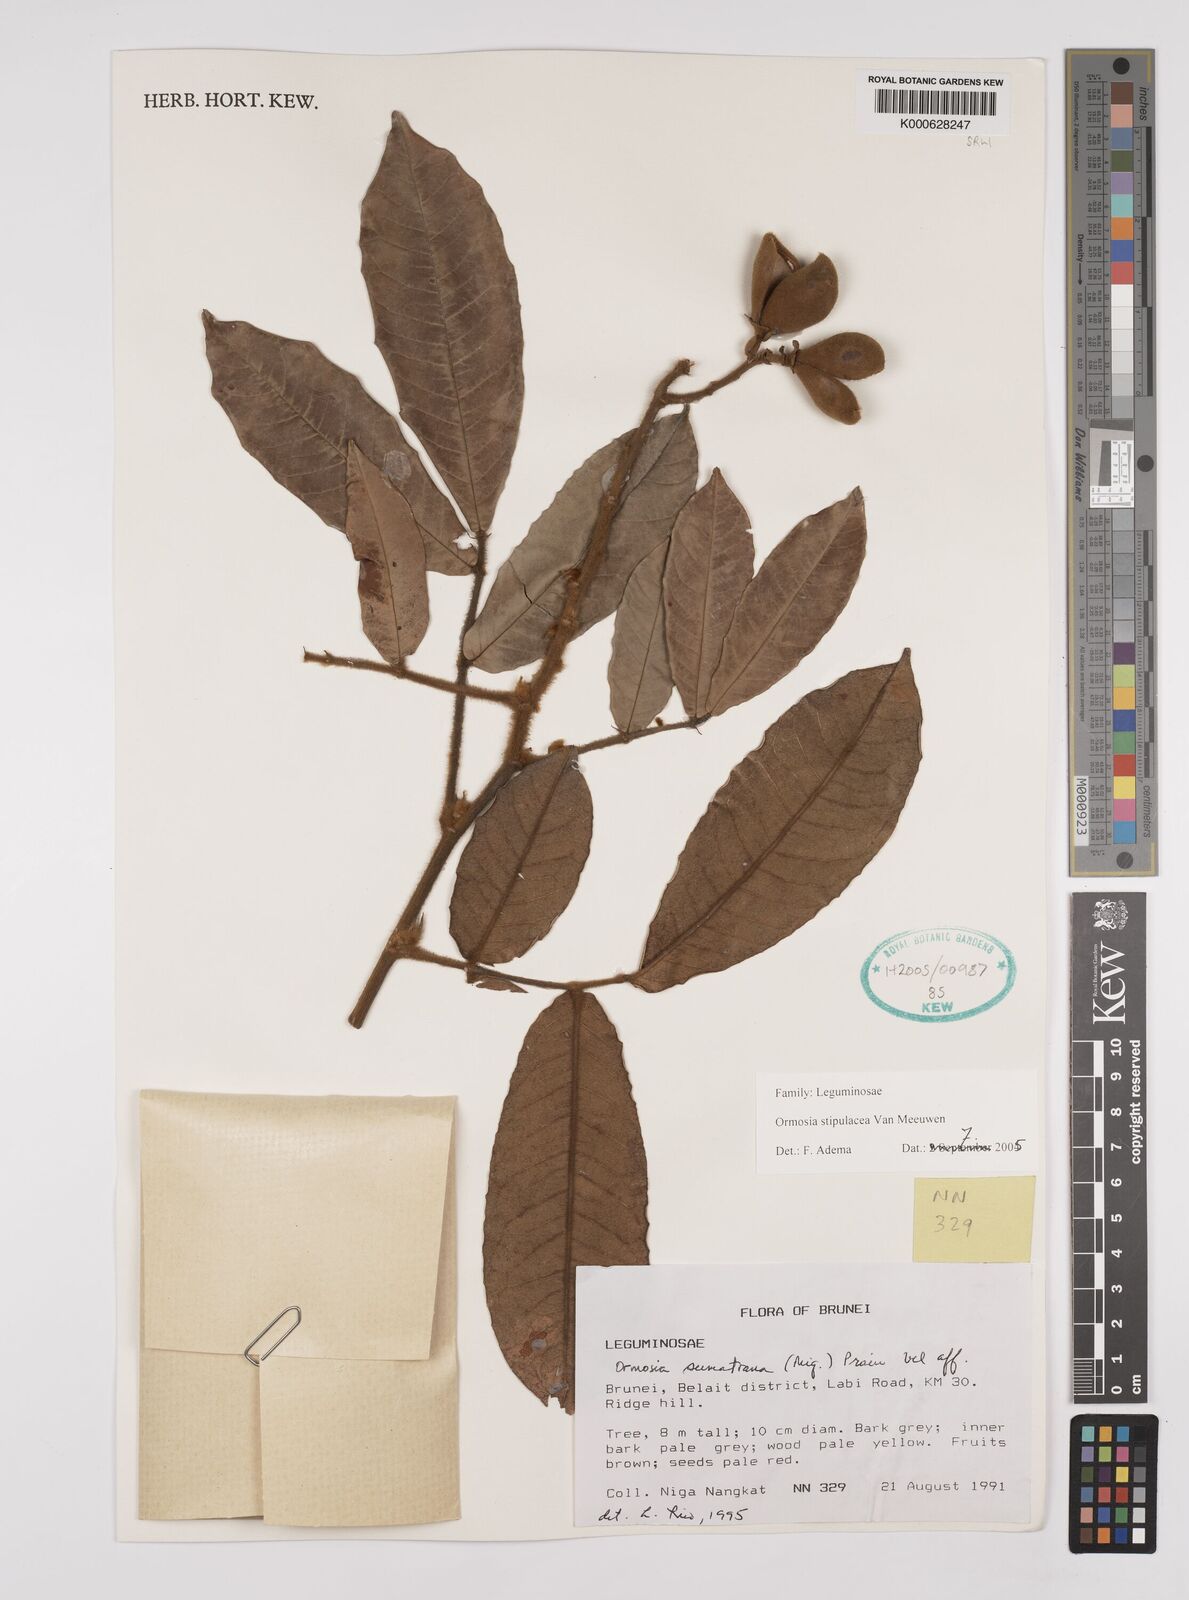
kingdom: Plantae
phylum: Tracheophyta
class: Magnoliopsida
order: Fabales
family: Fabaceae
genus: Ormosia
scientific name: Ormosia stipulacea
